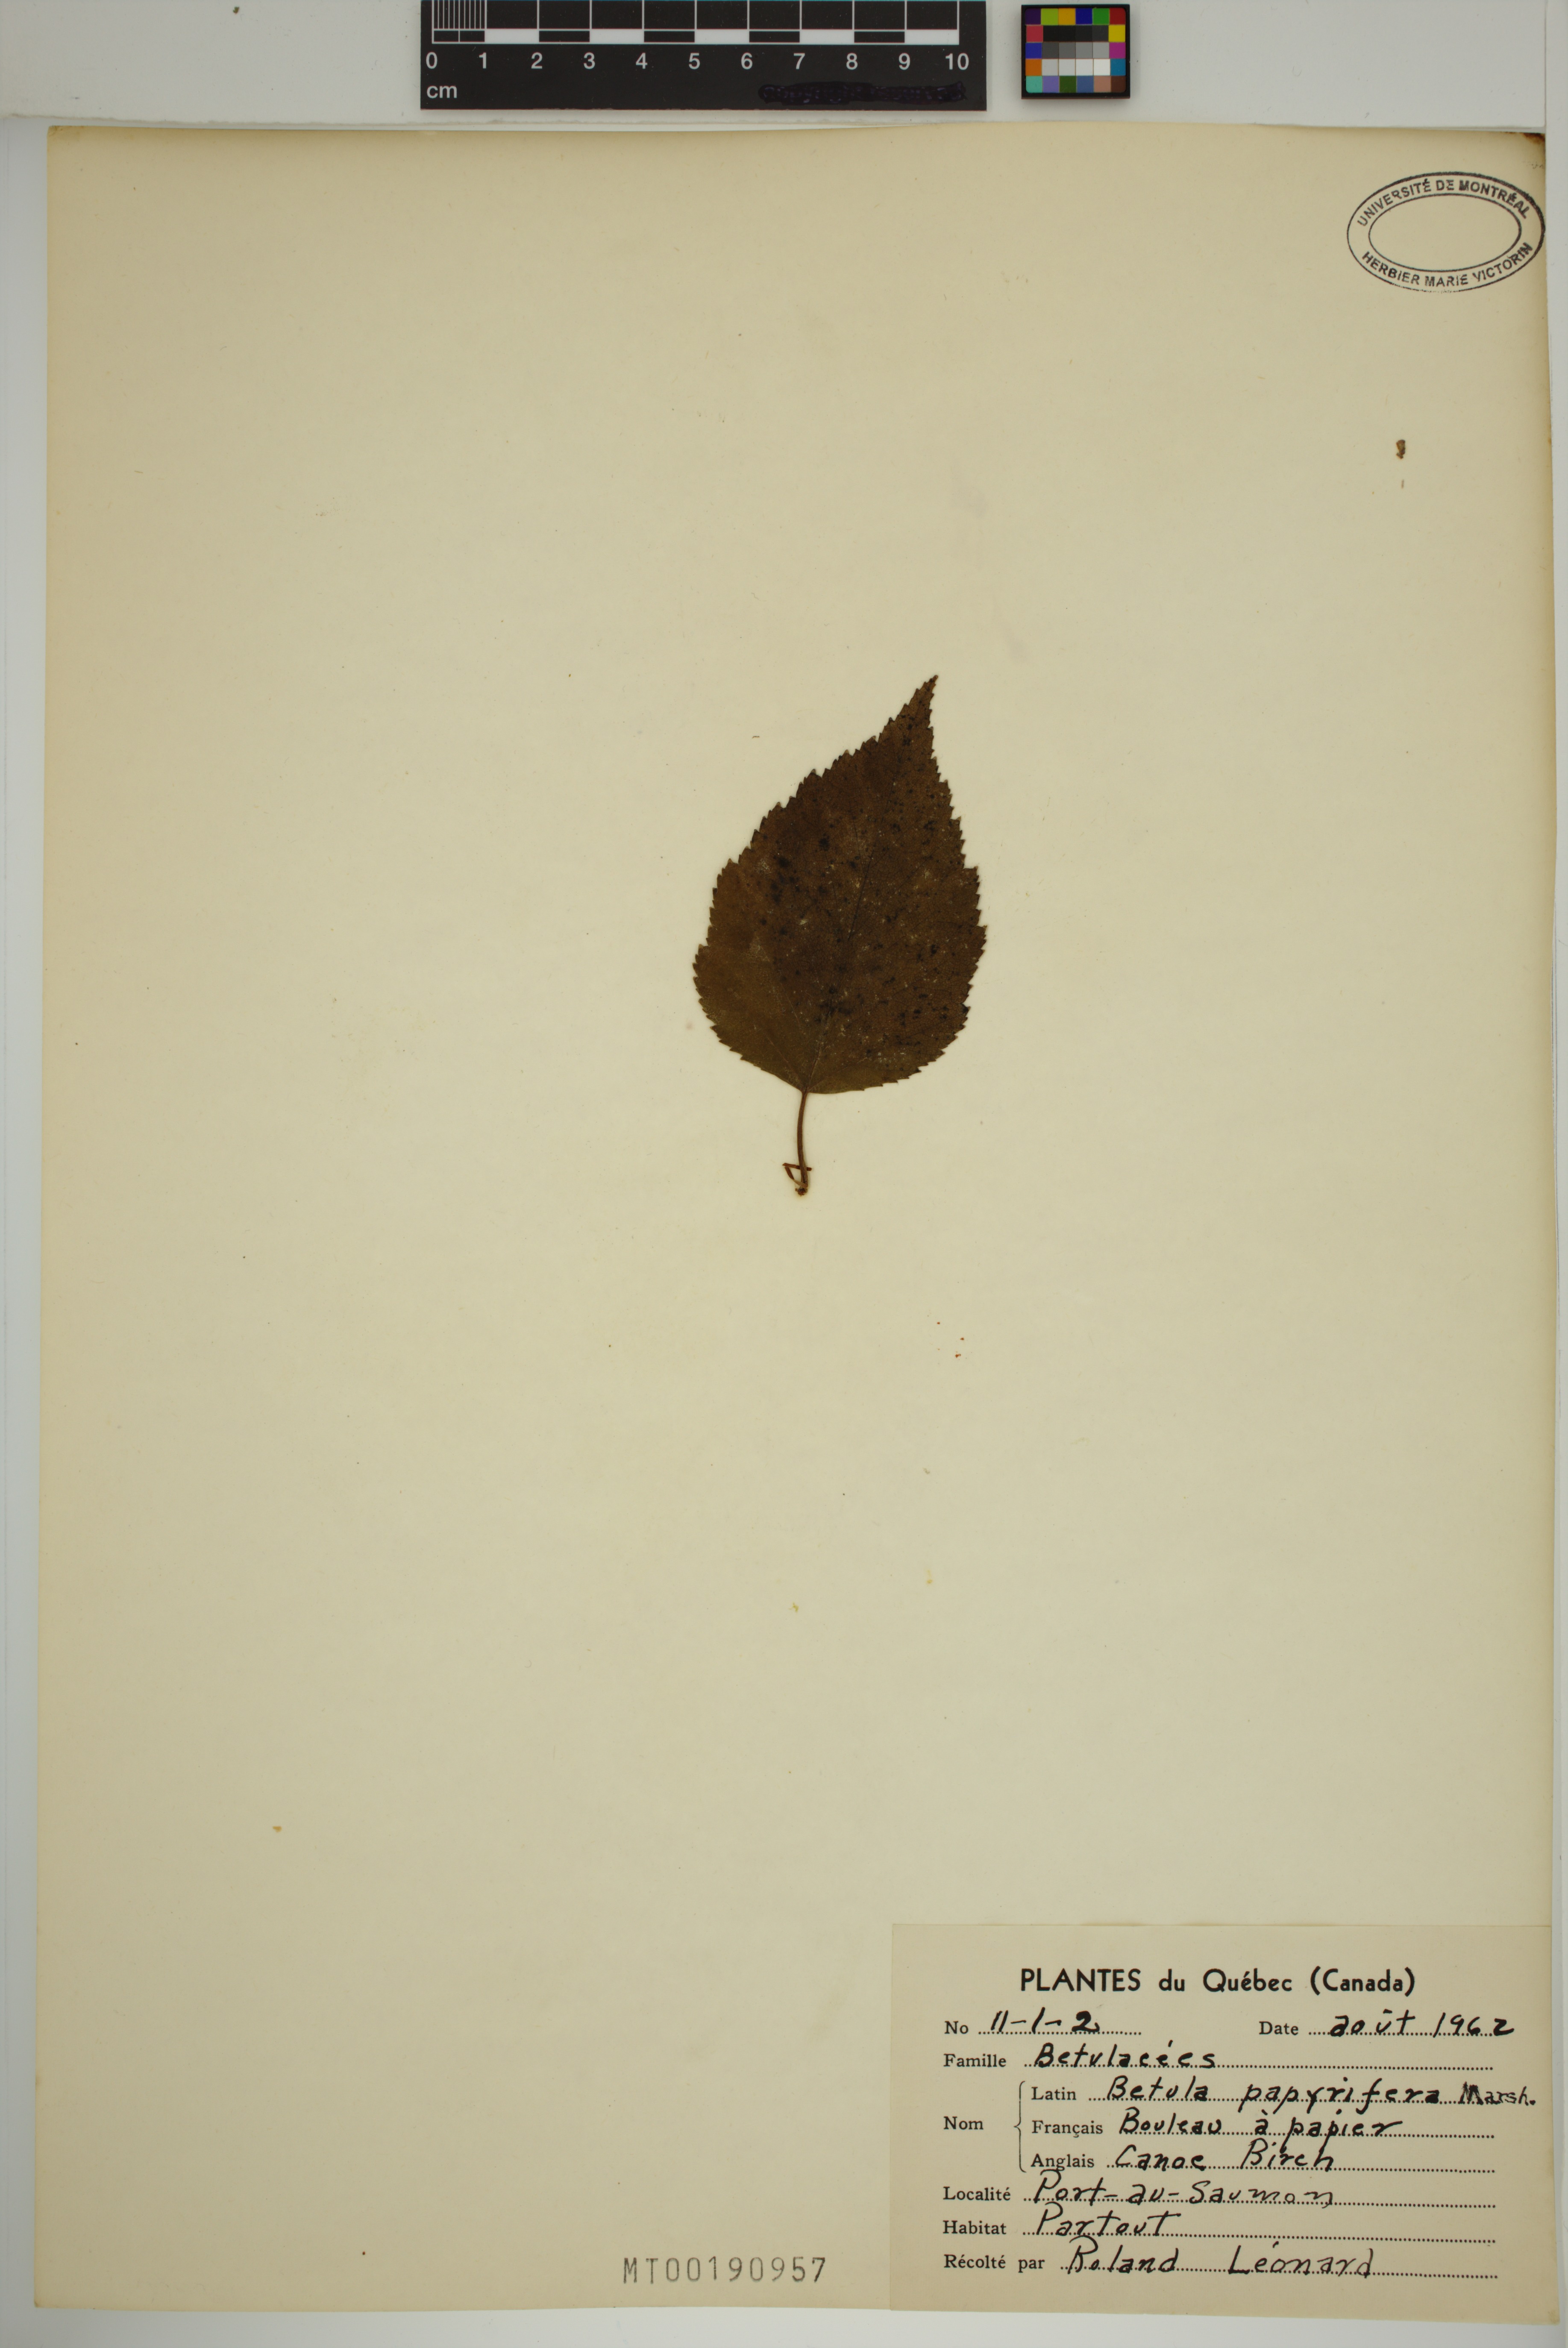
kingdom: Plantae
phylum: Tracheophyta
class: Magnoliopsida
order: Fagales
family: Betulaceae
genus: Betula
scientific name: Betula papyrifera
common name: Paper birch
